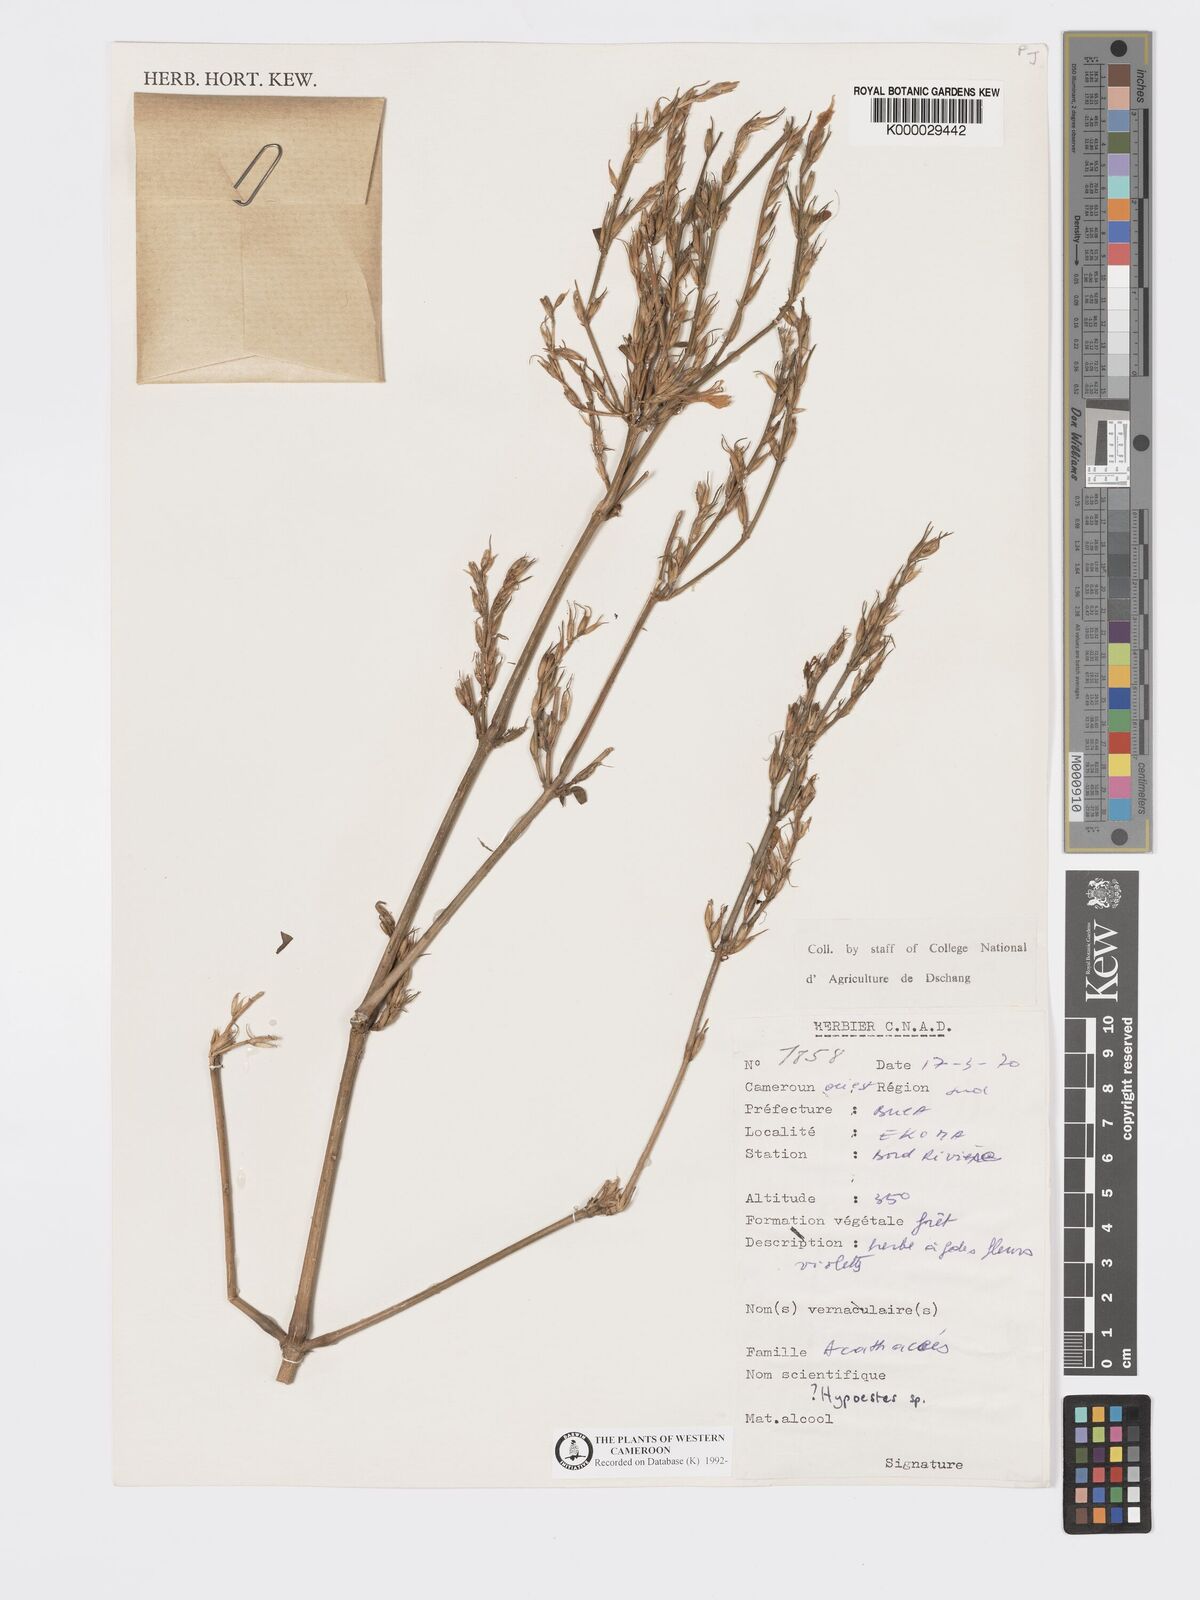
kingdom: Plantae
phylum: Tracheophyta
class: Magnoliopsida
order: Lamiales
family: Acanthaceae
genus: Hypoestes
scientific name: Hypoestes
